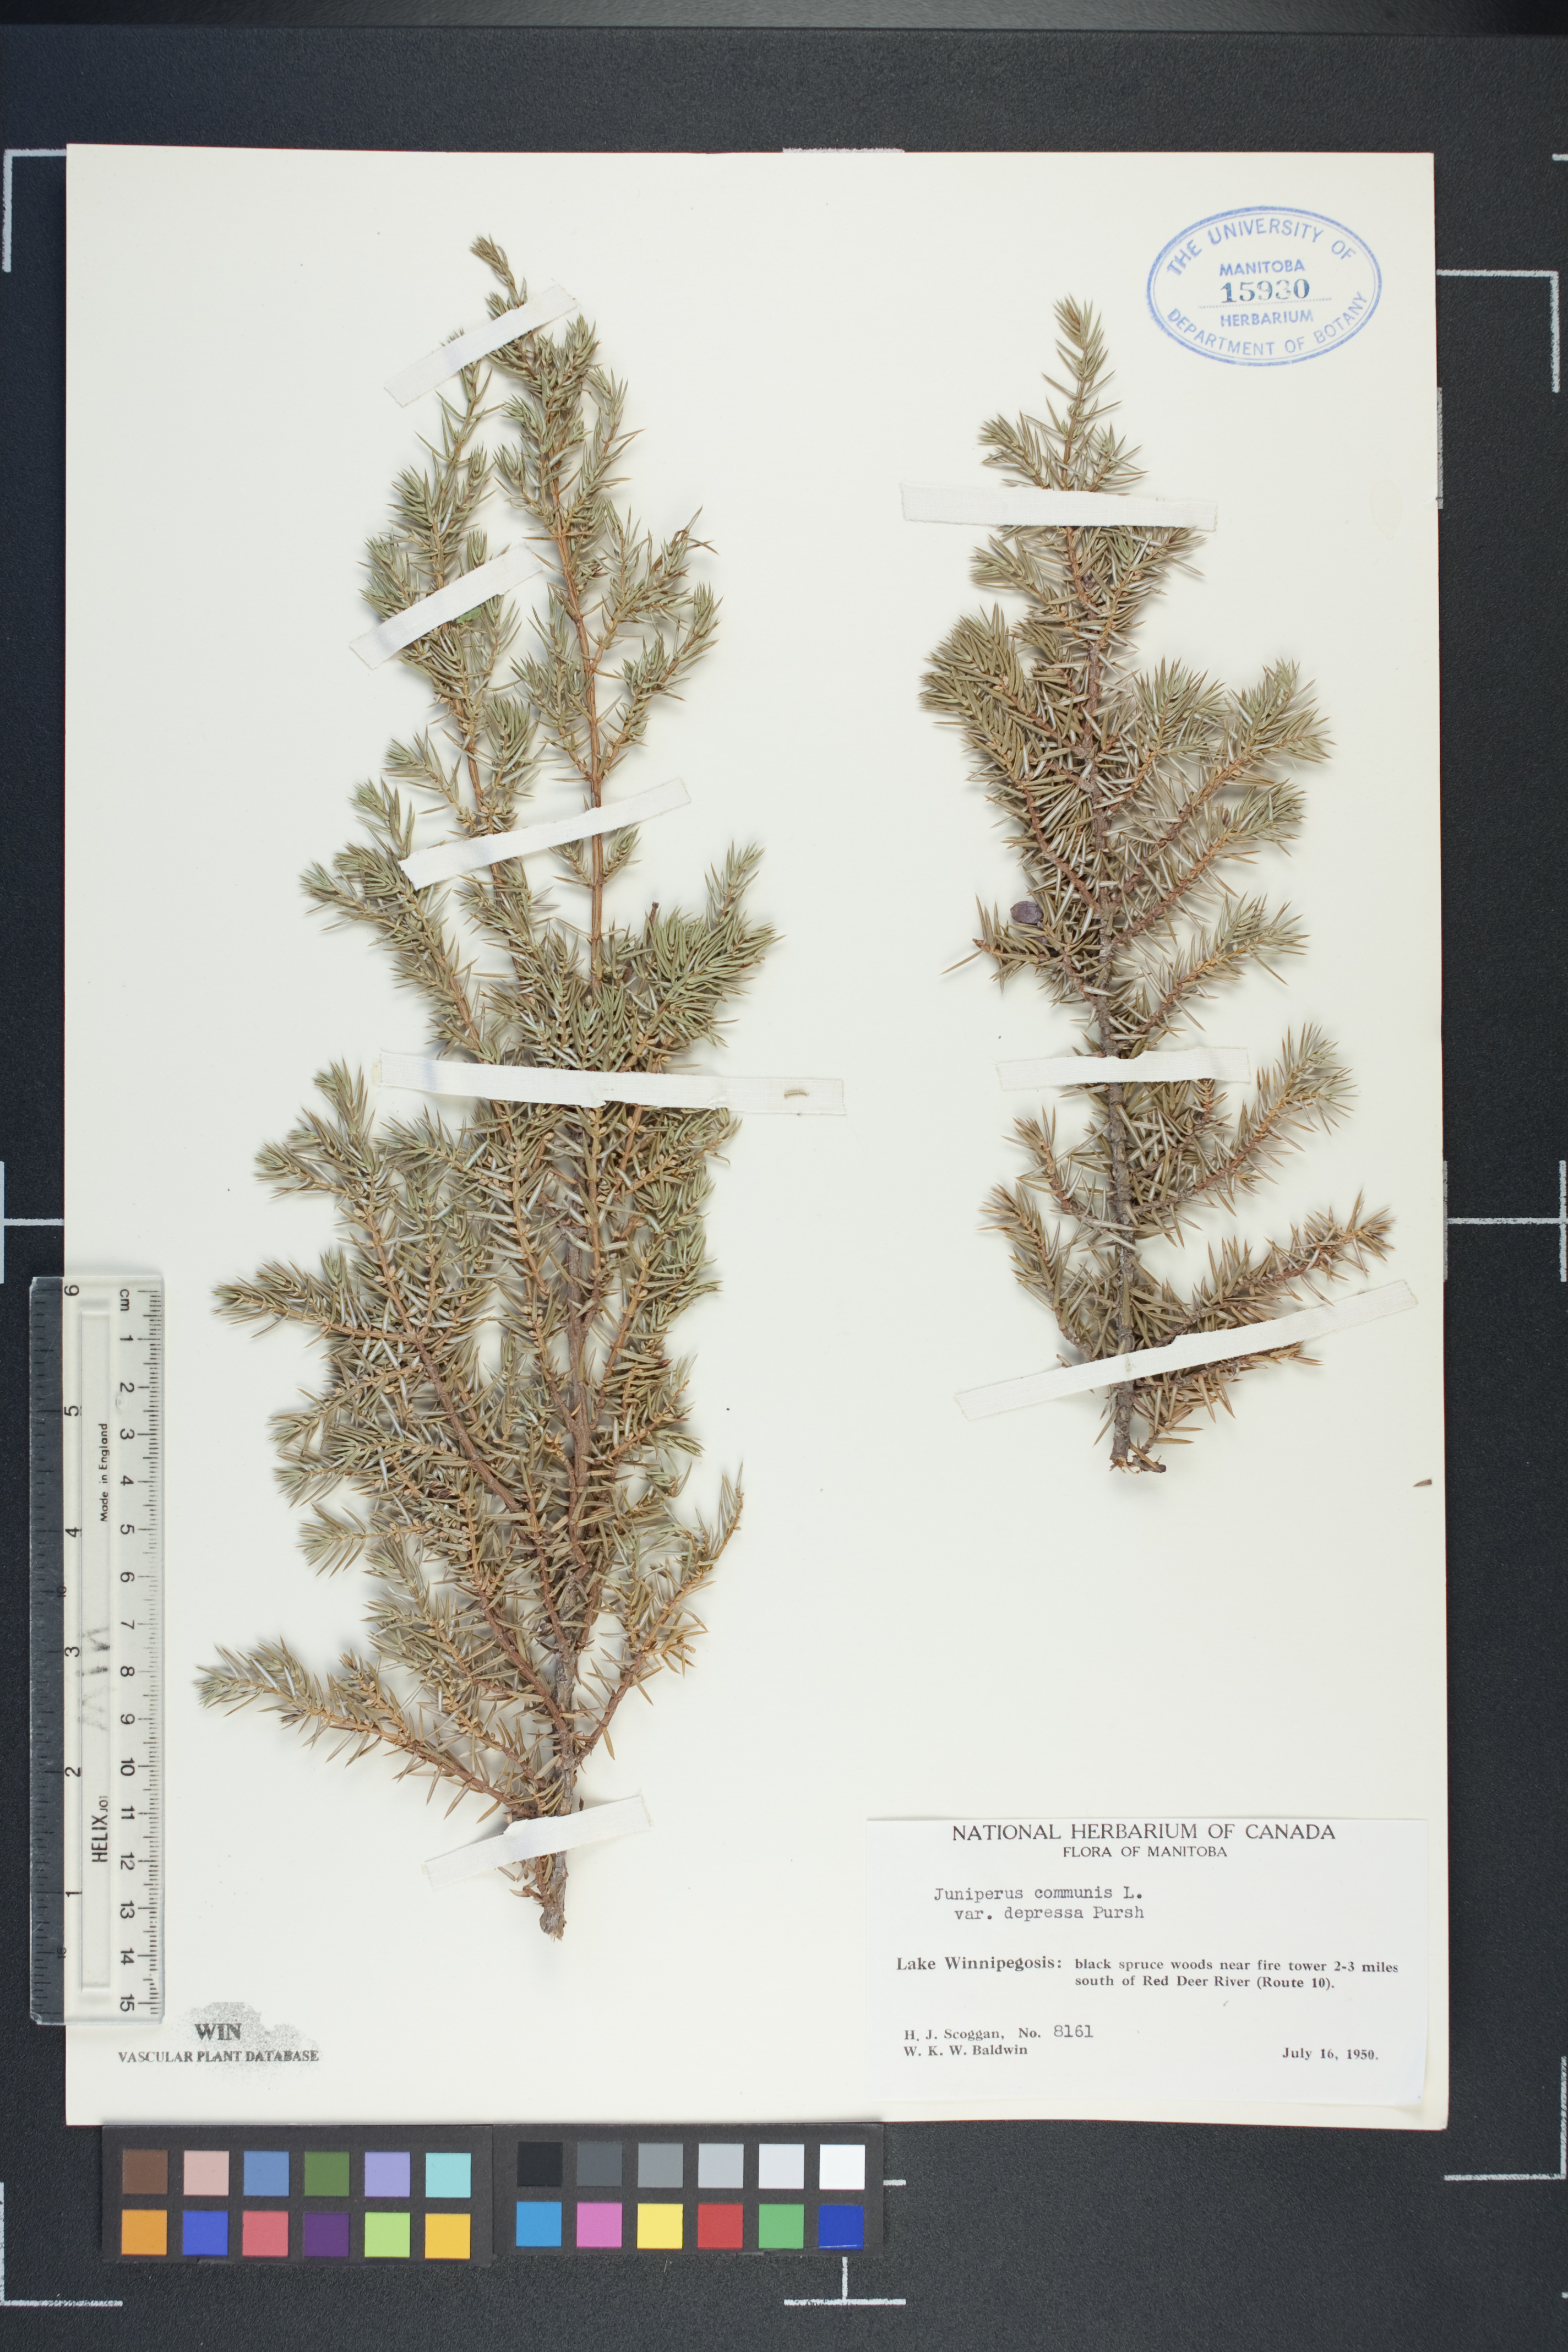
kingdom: Plantae
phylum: Tracheophyta
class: Pinopsida
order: Pinales
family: Cupressaceae
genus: Juniperus
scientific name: Juniperus communis
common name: Common juniper
